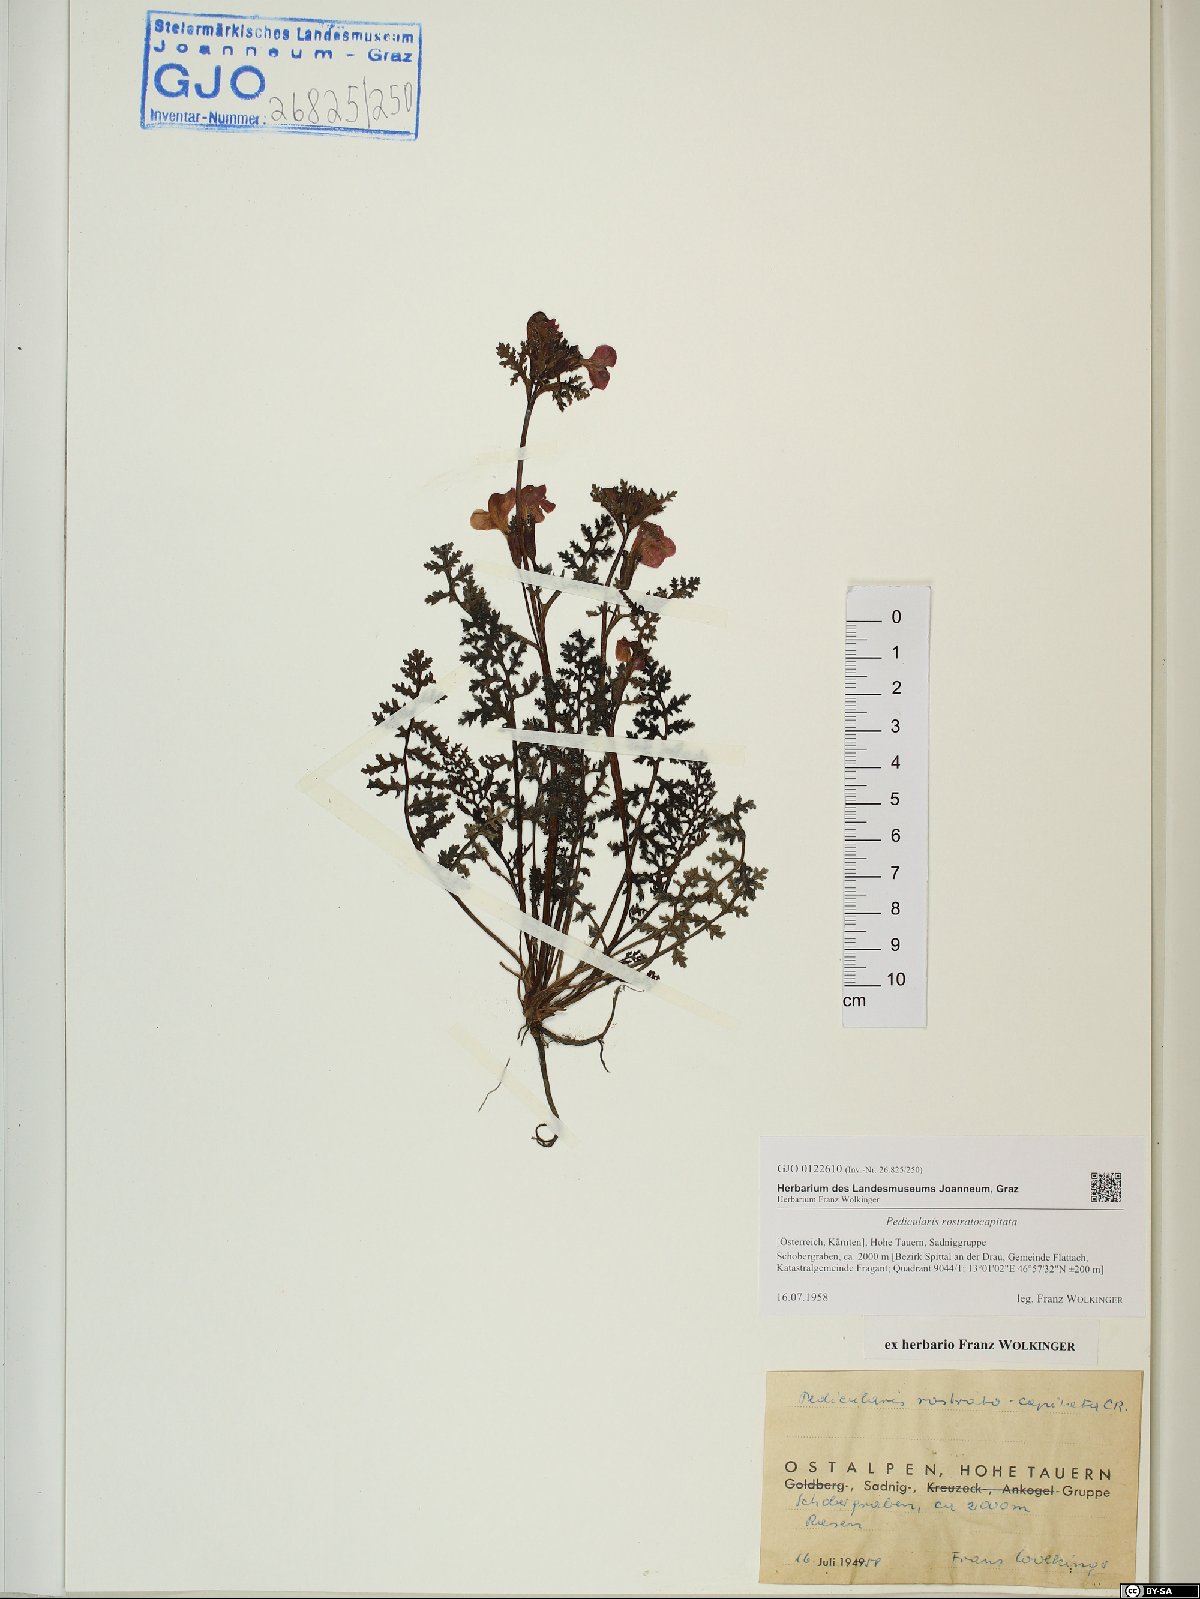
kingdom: Plantae
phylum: Tracheophyta
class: Magnoliopsida
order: Lamiales
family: Orobanchaceae
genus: Pedicularis
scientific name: Pedicularis rostratocapitata
